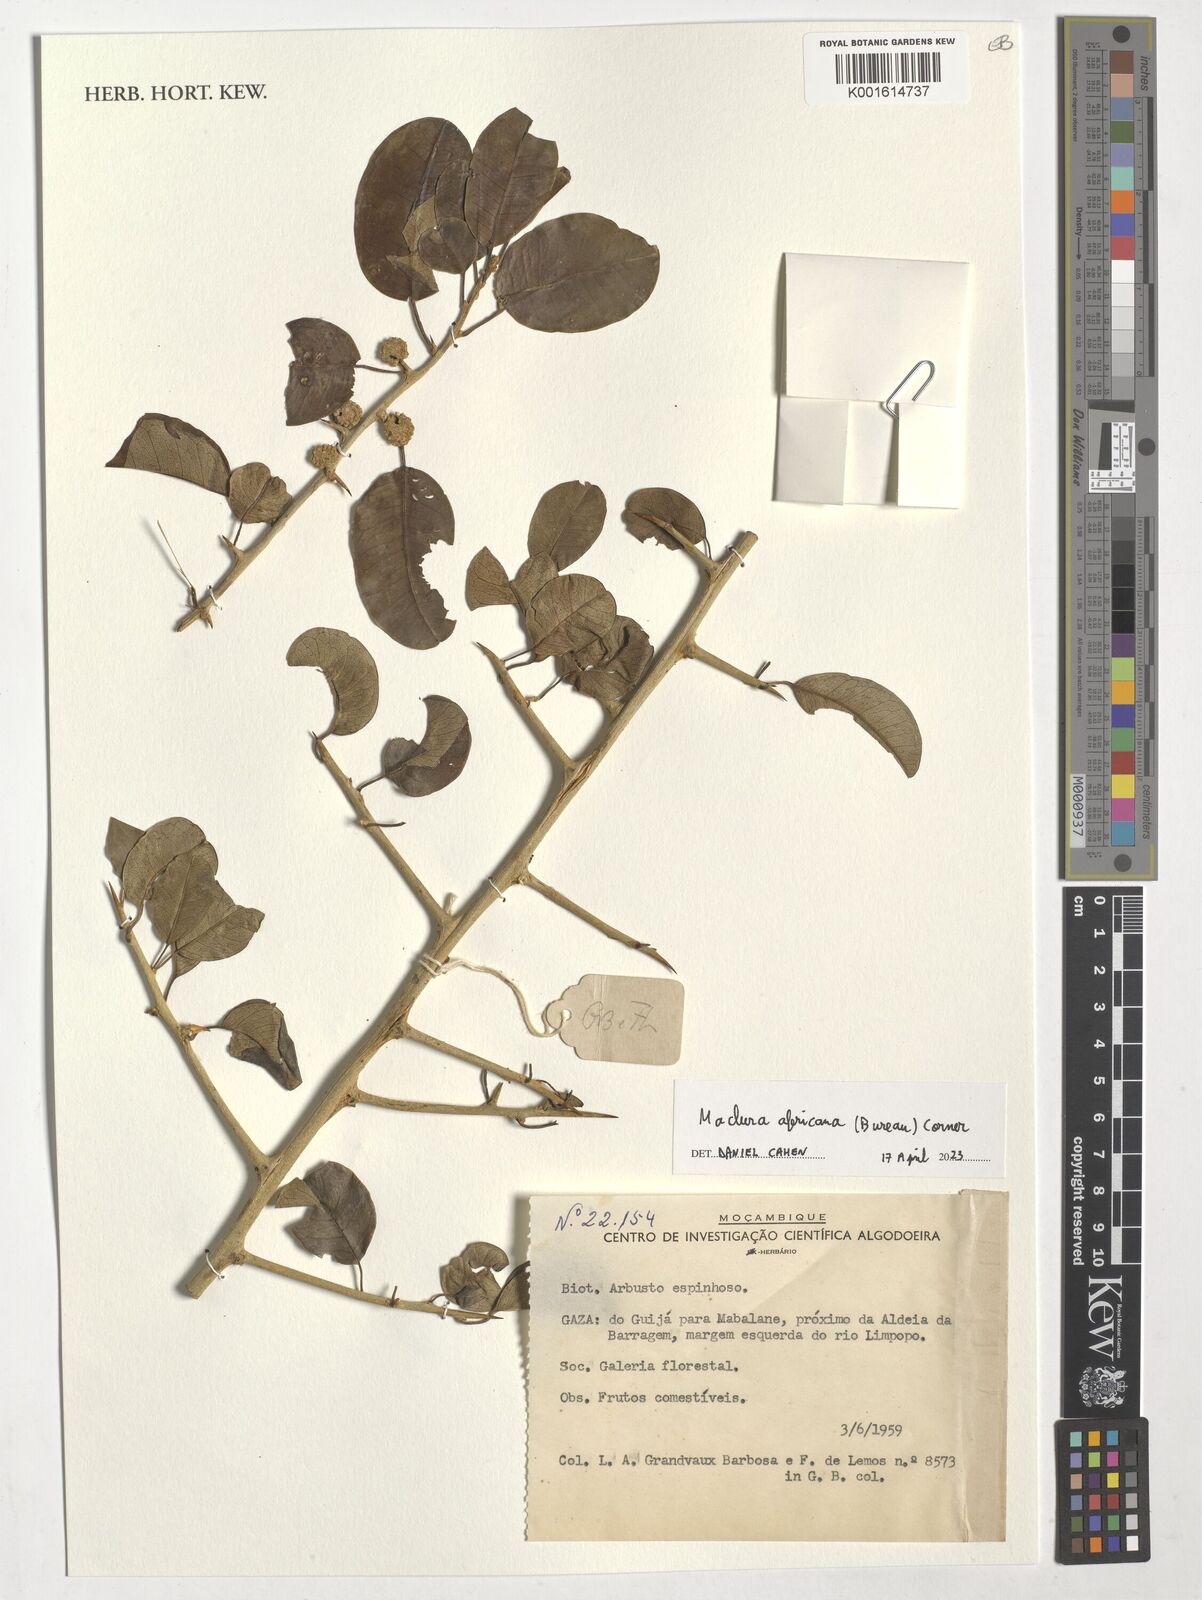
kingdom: Plantae
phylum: Tracheophyta
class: Magnoliopsida
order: Rosales
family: Moraceae
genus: Maclura
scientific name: Maclura africana
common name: African osage orange
